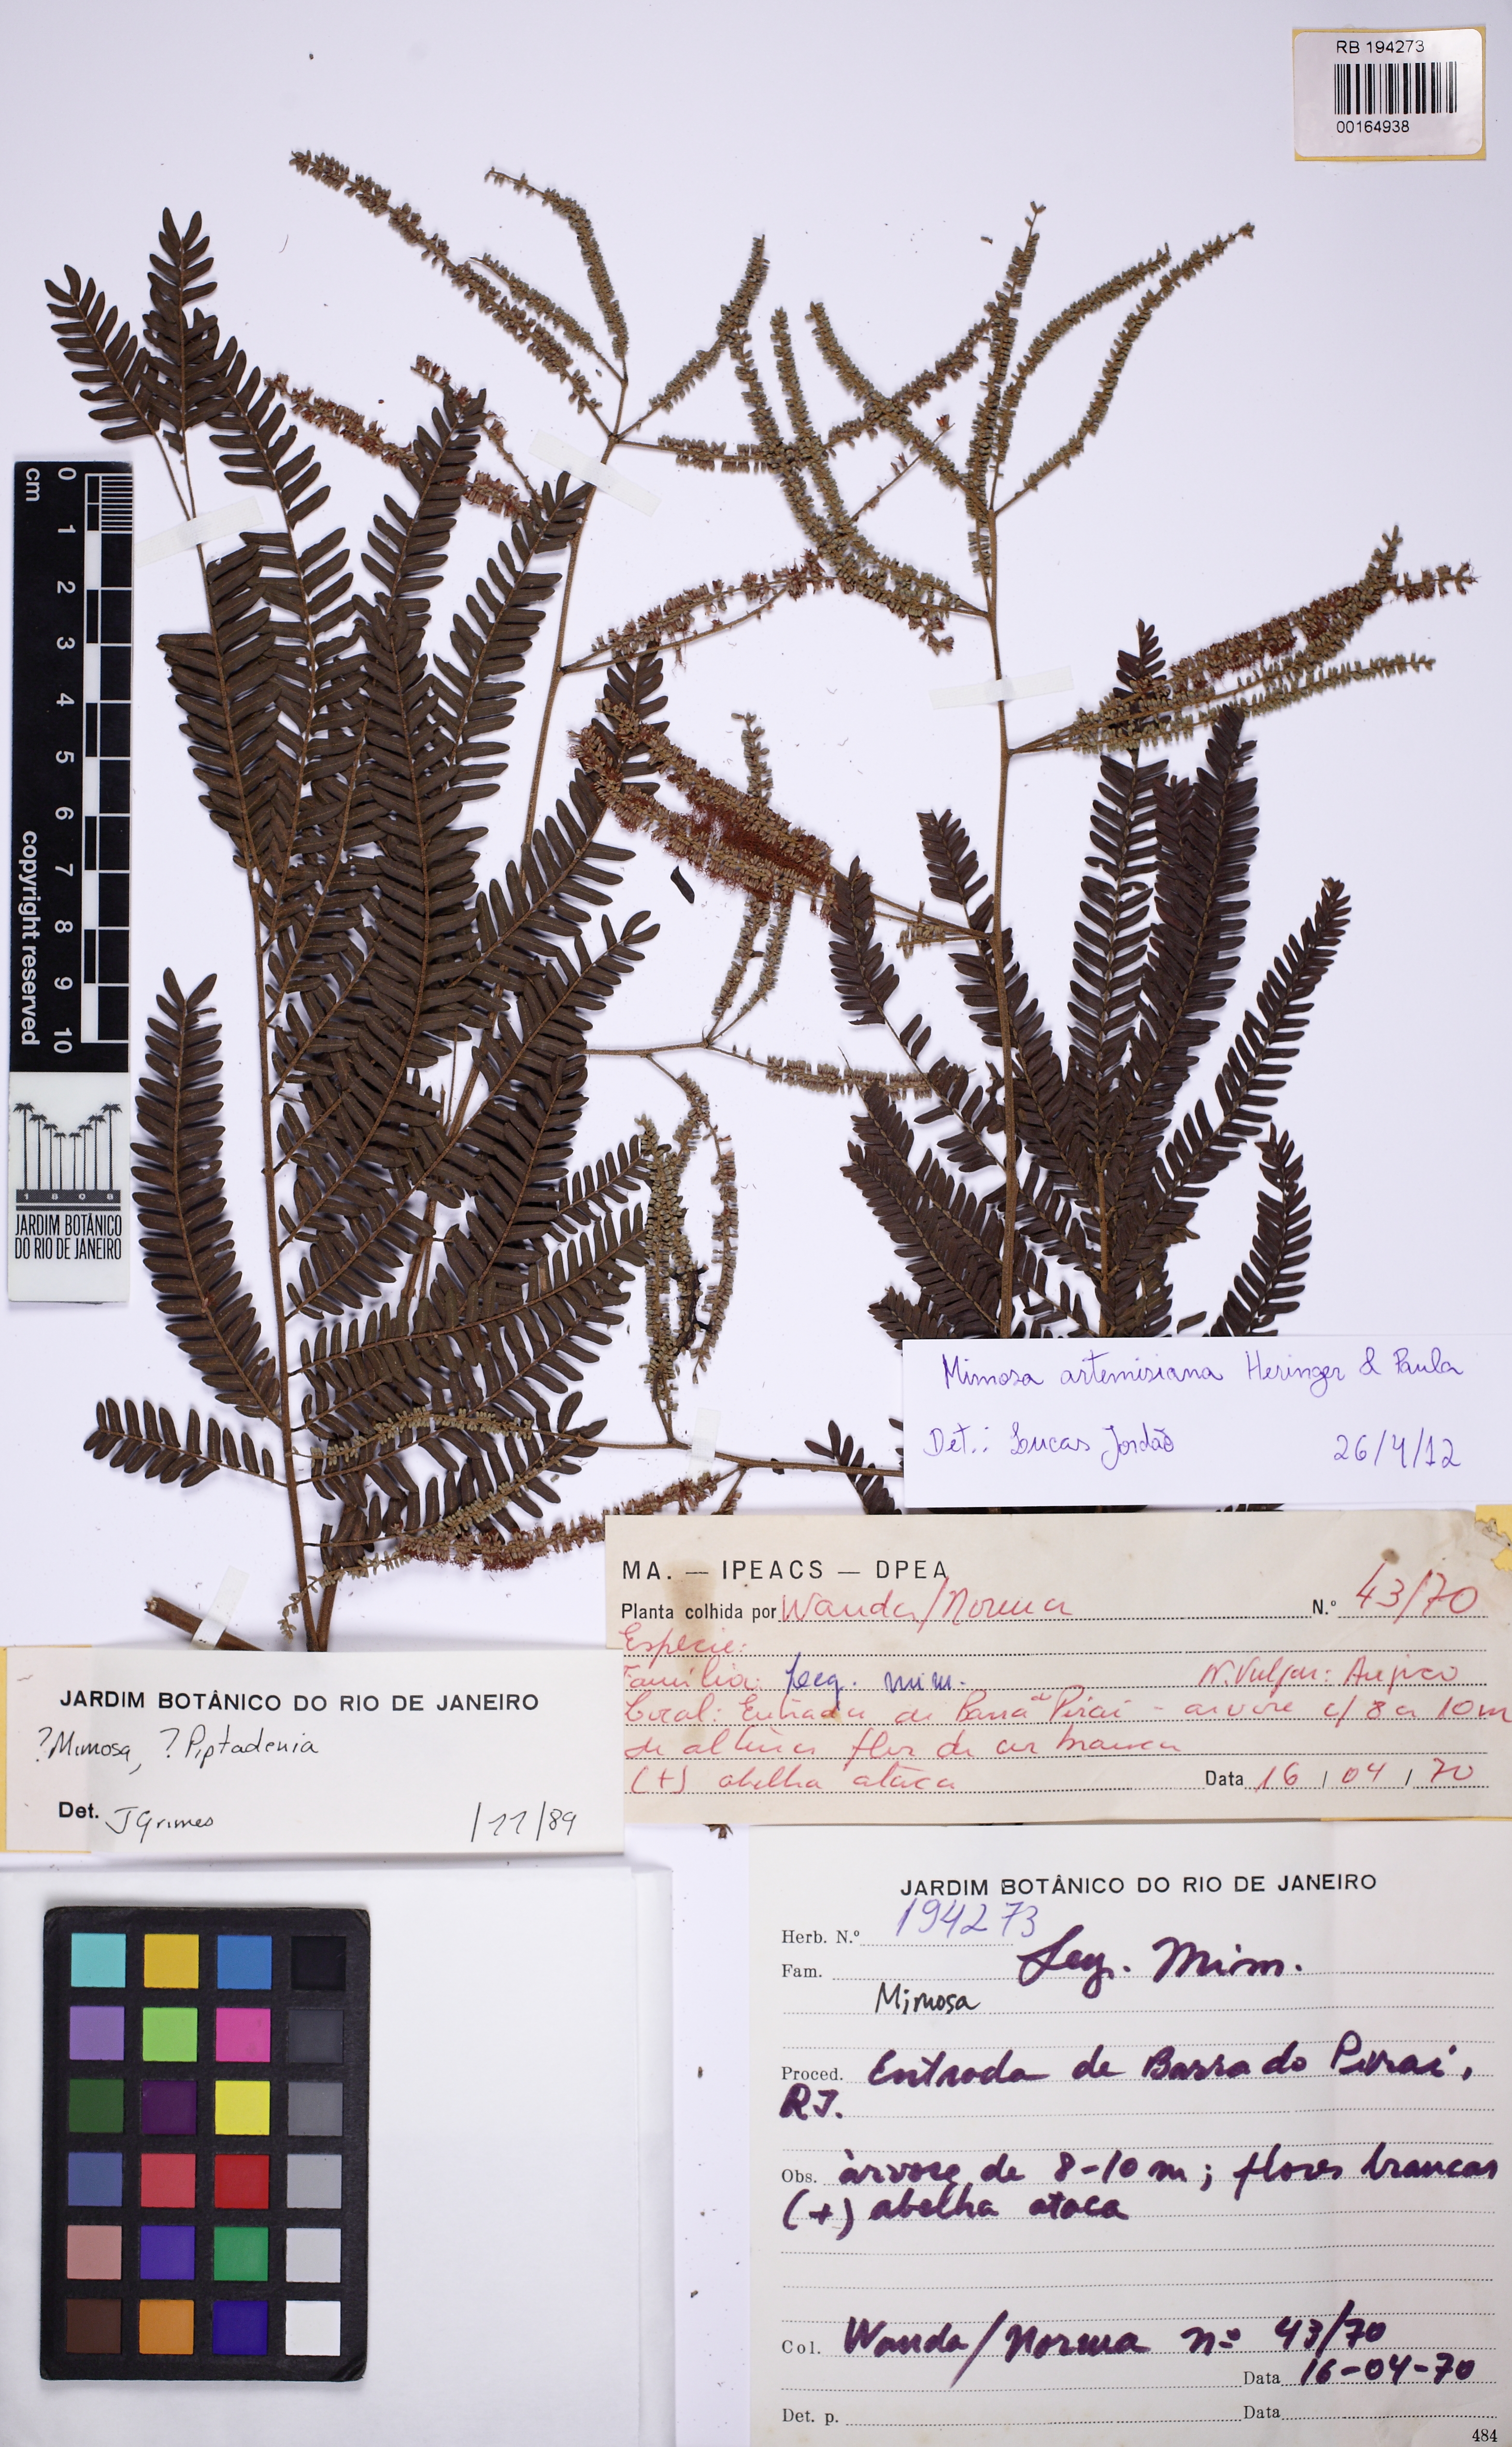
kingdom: Plantae
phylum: Tracheophyta
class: Magnoliopsida
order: Fabales
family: Fabaceae
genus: Mimosa
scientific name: Mimosa schomburgkii
